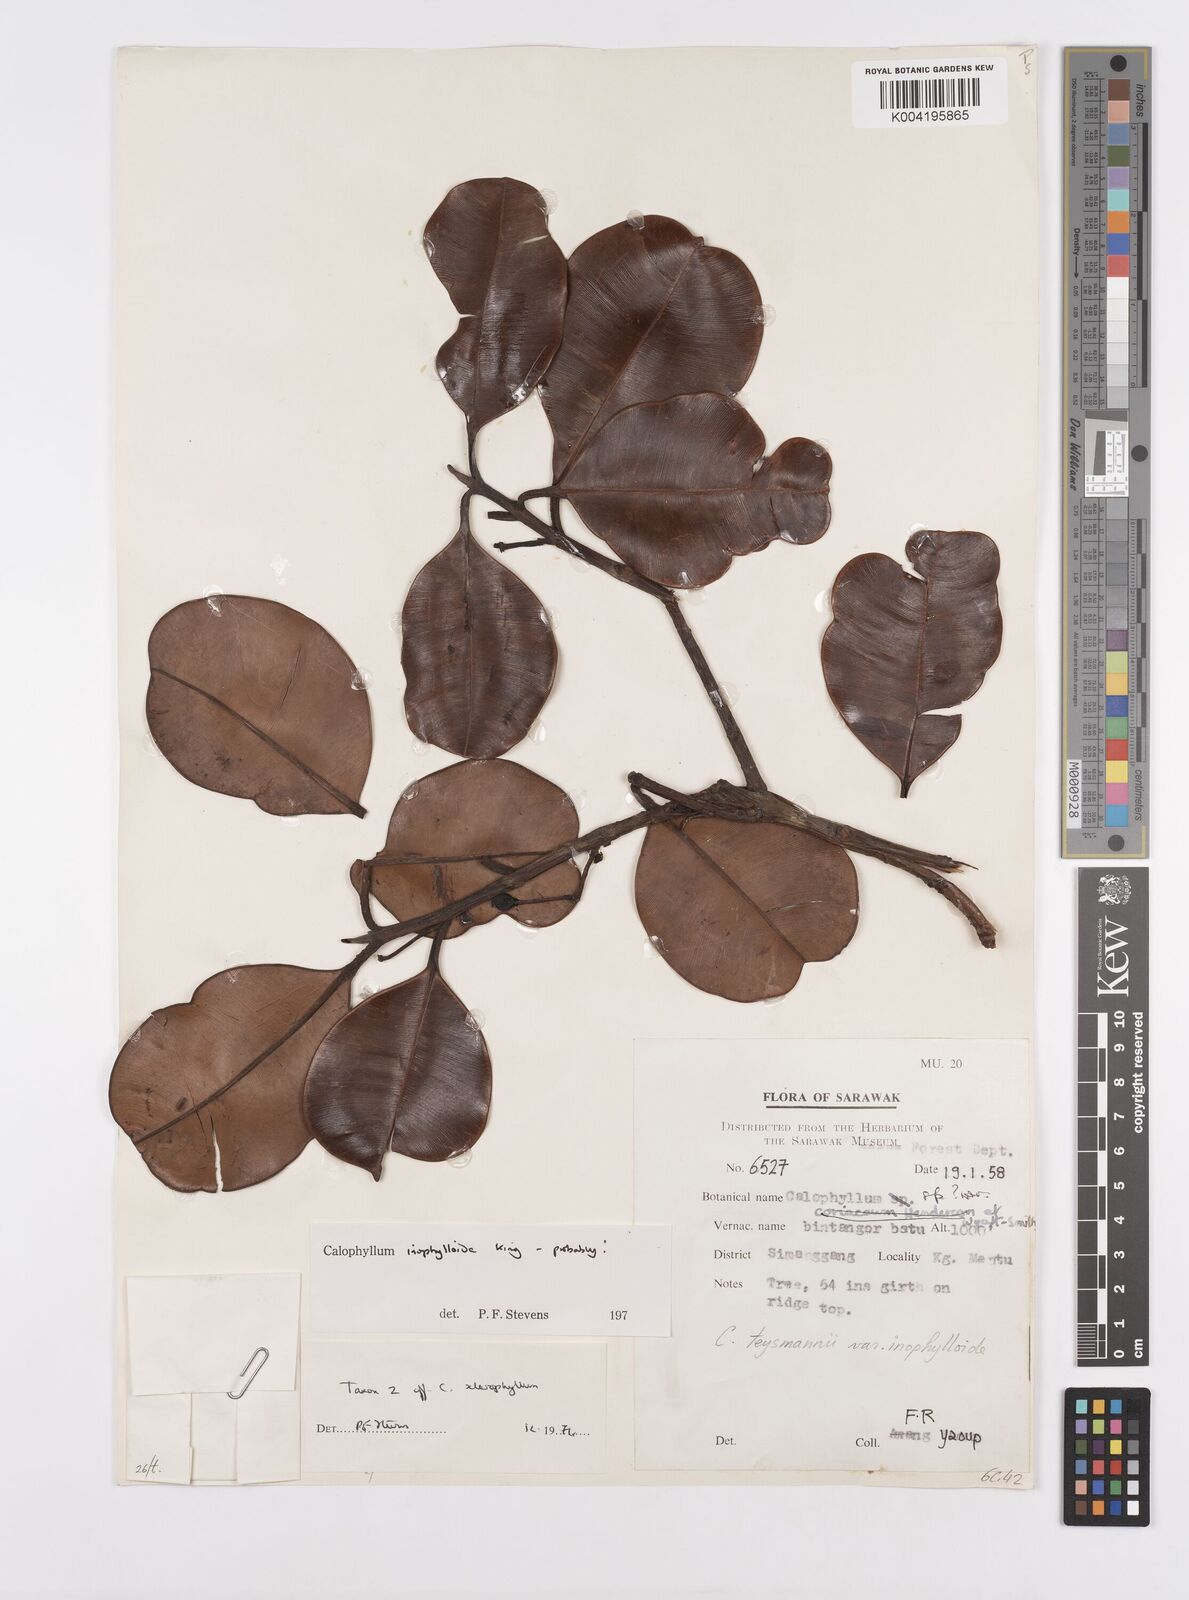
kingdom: Plantae
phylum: Tracheophyta
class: Magnoliopsida
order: Malpighiales
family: Calophyllaceae
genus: Calophyllum
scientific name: Calophyllum teysmannii
